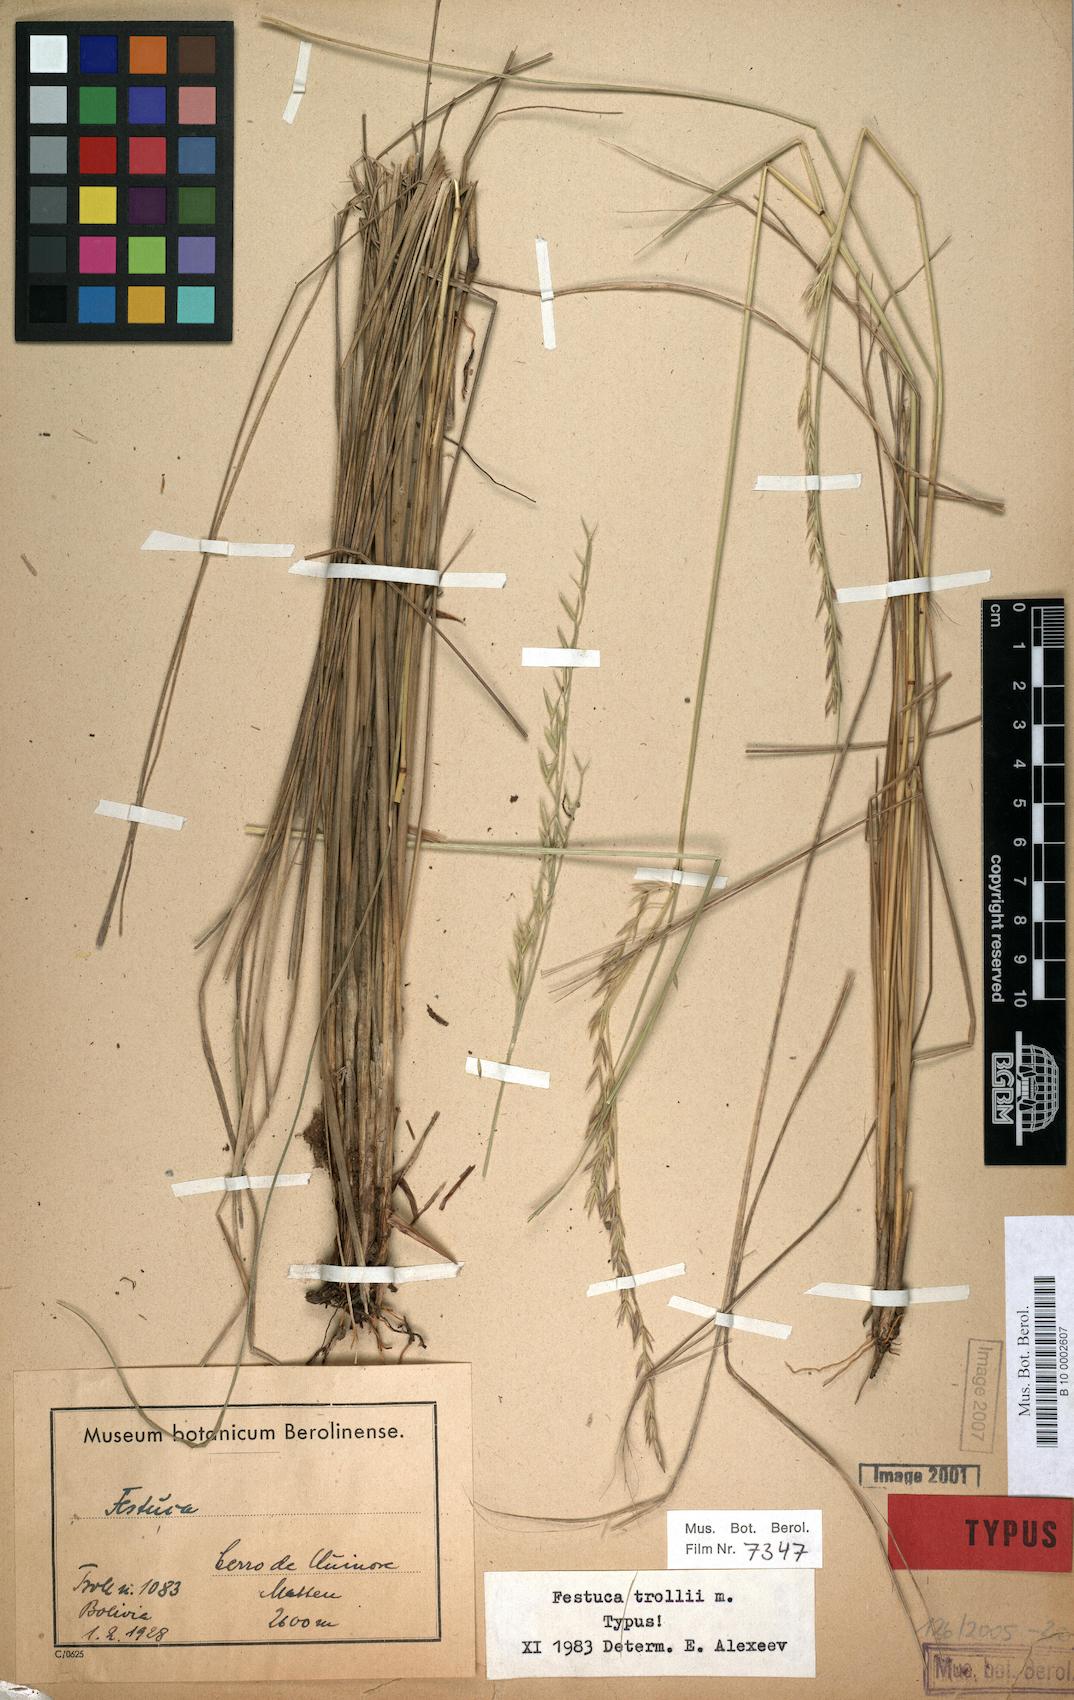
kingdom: Plantae
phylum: Tracheophyta
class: Liliopsida
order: Poales
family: Poaceae
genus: Festuca
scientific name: Festuca trollii
